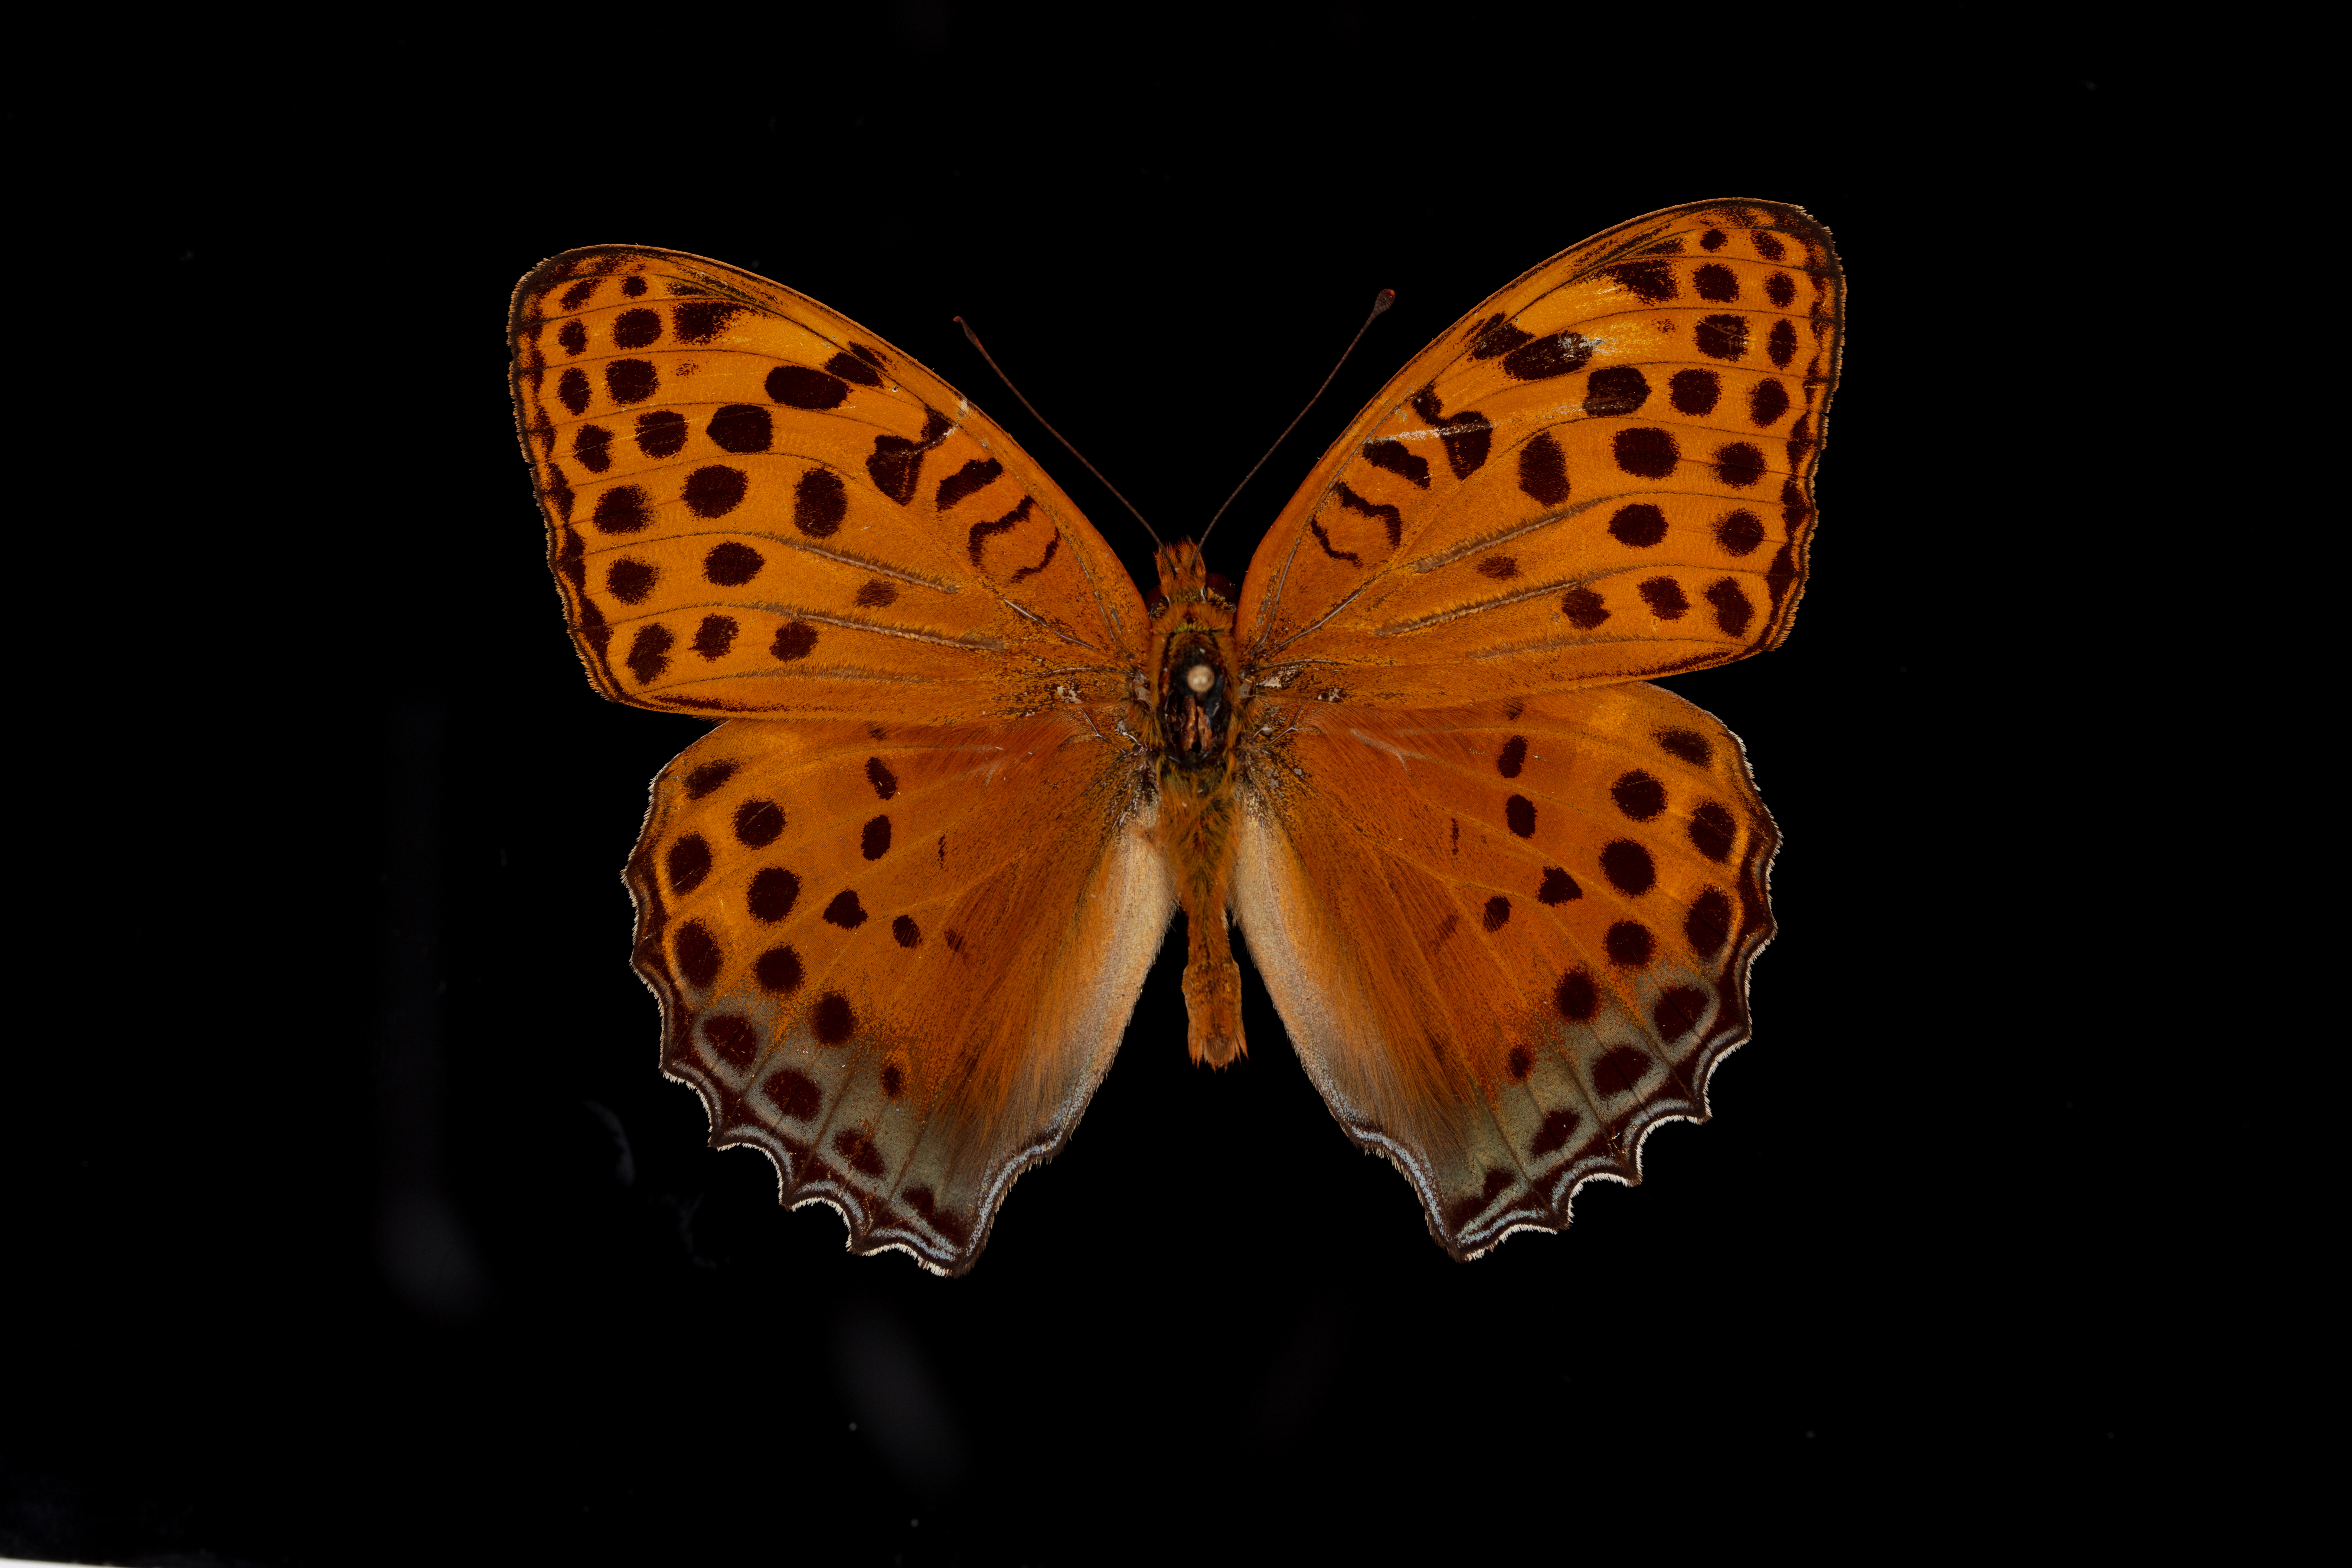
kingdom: Animalia
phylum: Arthropoda
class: Insecta
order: Lepidoptera
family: Nymphalidae
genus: Childrena
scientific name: Childrena childreni
